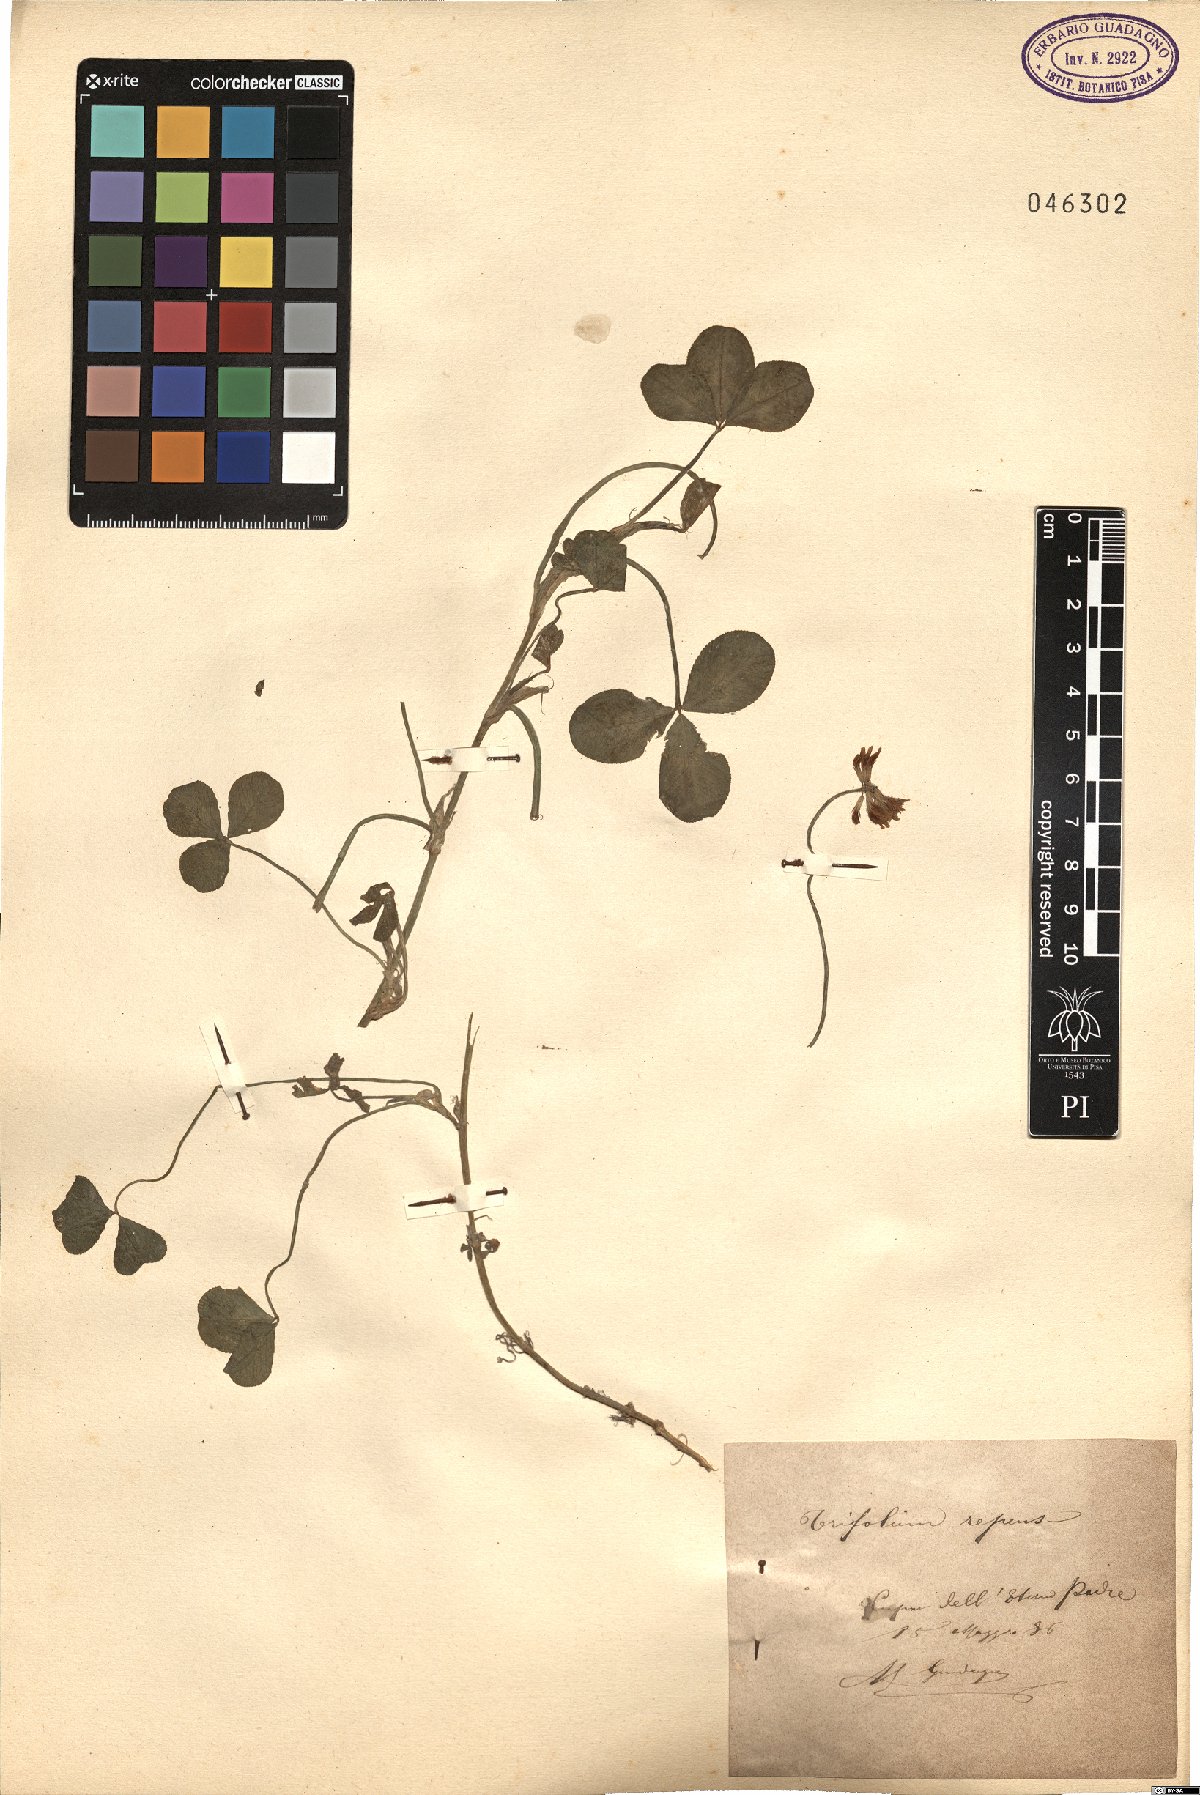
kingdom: Plantae
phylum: Tracheophyta
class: Magnoliopsida
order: Fabales
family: Fabaceae
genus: Trifolium
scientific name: Trifolium repens
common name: White clover
